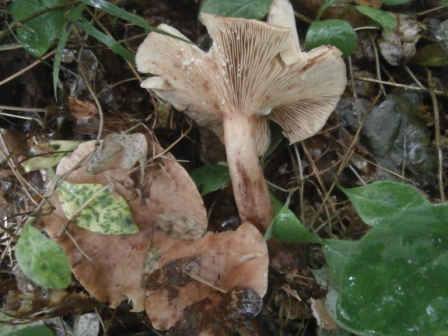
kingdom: Fungi
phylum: Basidiomycota
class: Agaricomycetes
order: Russulales
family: Russulaceae
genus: Lactarius
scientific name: Lactarius camphoratus
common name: kamfer-mælkehat
